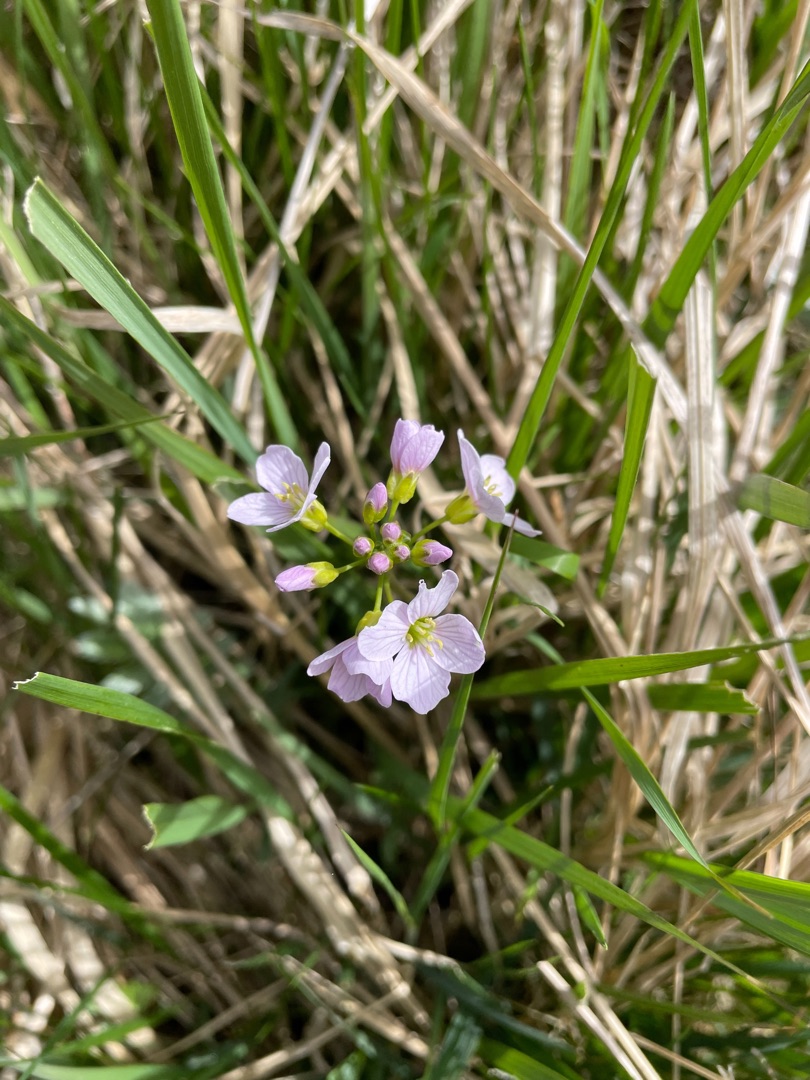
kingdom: Plantae
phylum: Tracheophyta
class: Magnoliopsida
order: Brassicales
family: Brassicaceae
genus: Cardamine
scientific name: Cardamine pratensis
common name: Engkarse
